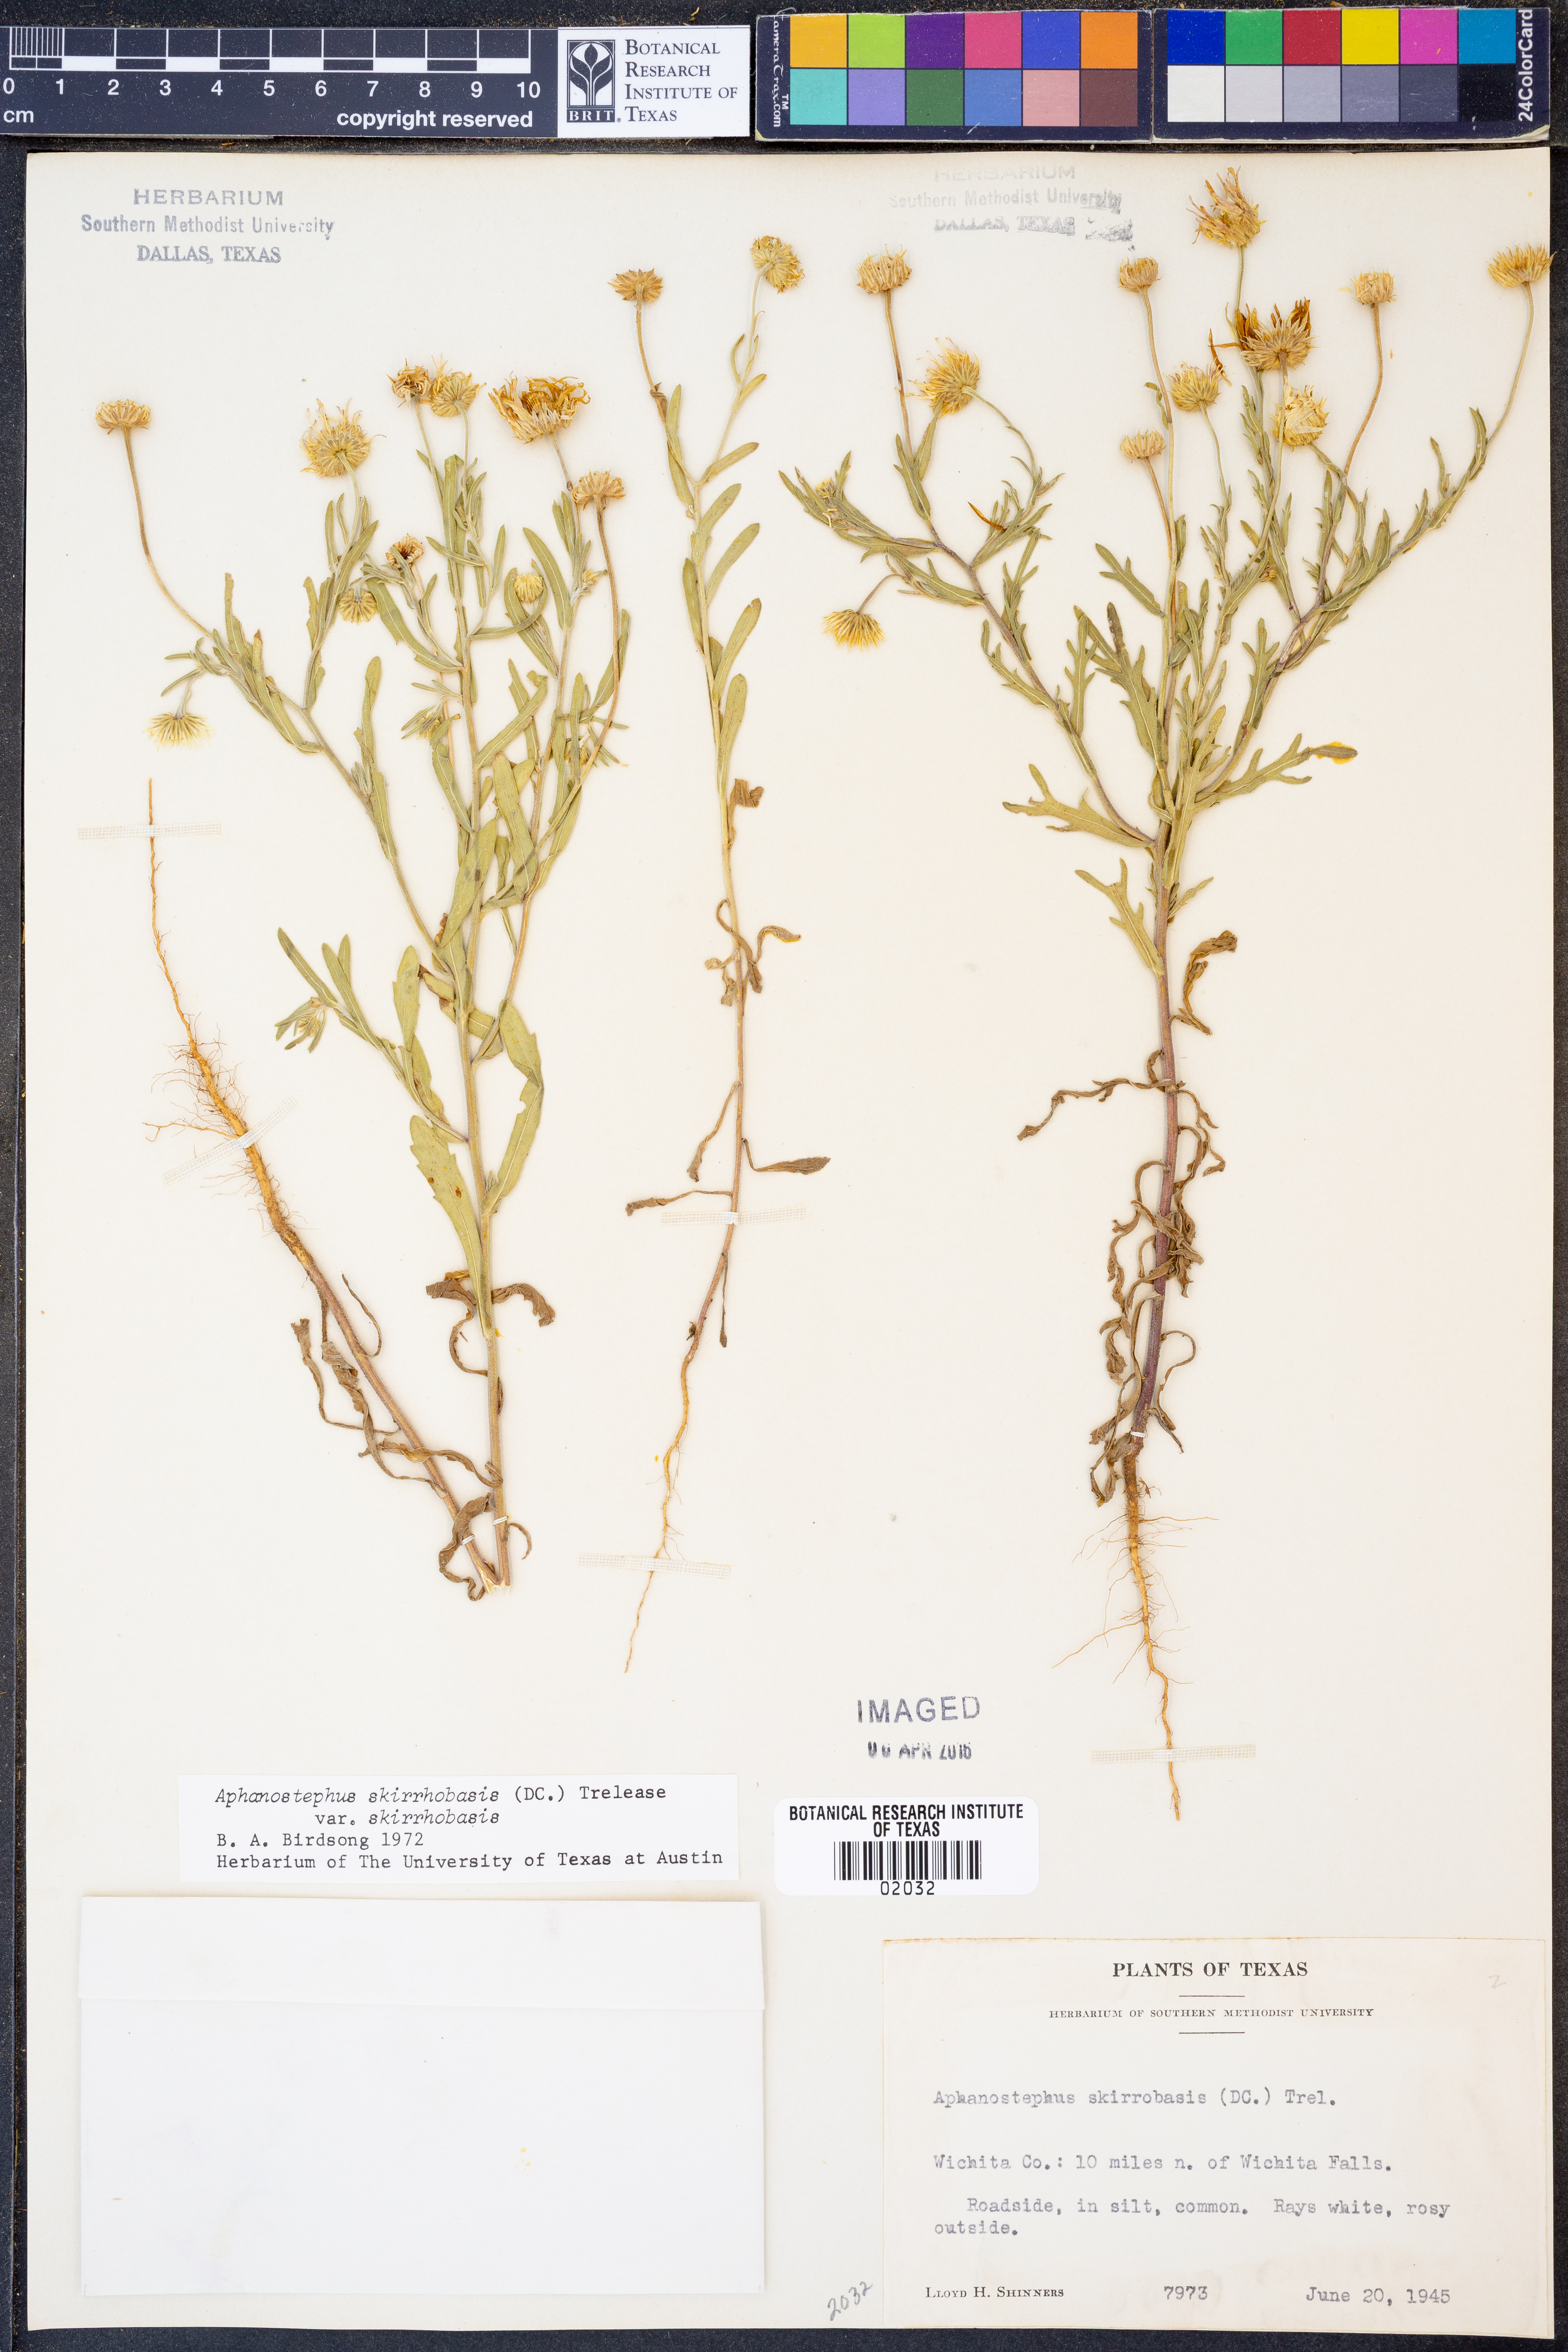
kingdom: Plantae
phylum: Tracheophyta
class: Magnoliopsida
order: Asterales
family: Asteraceae
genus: Aphanostephus
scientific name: Aphanostephus skirrhobasis
